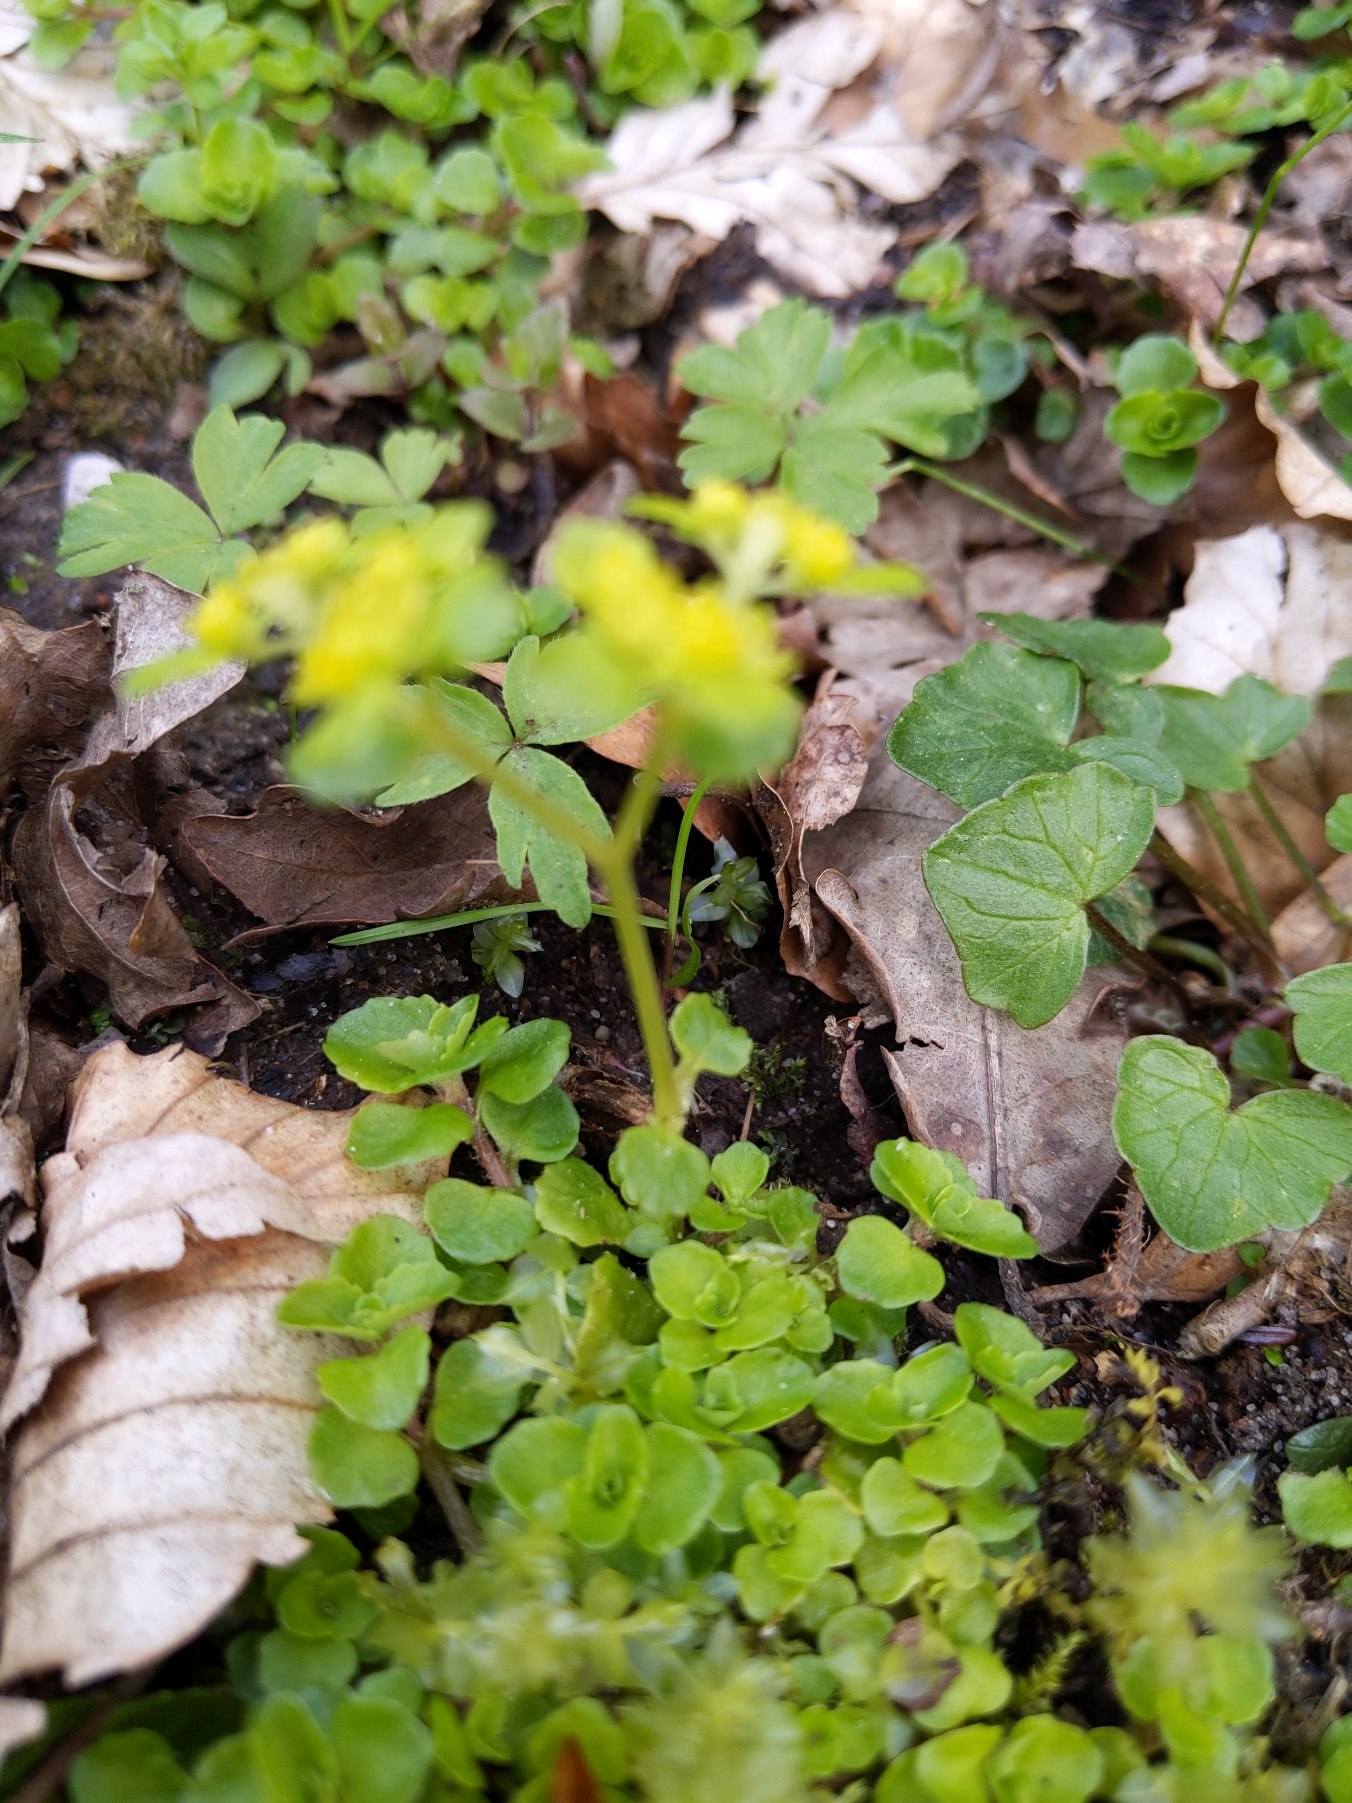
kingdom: Plantae
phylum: Tracheophyta
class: Magnoliopsida
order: Saxifragales
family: Saxifragaceae
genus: Chrysosplenium
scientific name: Chrysosplenium oppositifolium
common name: Småbladet milturt
